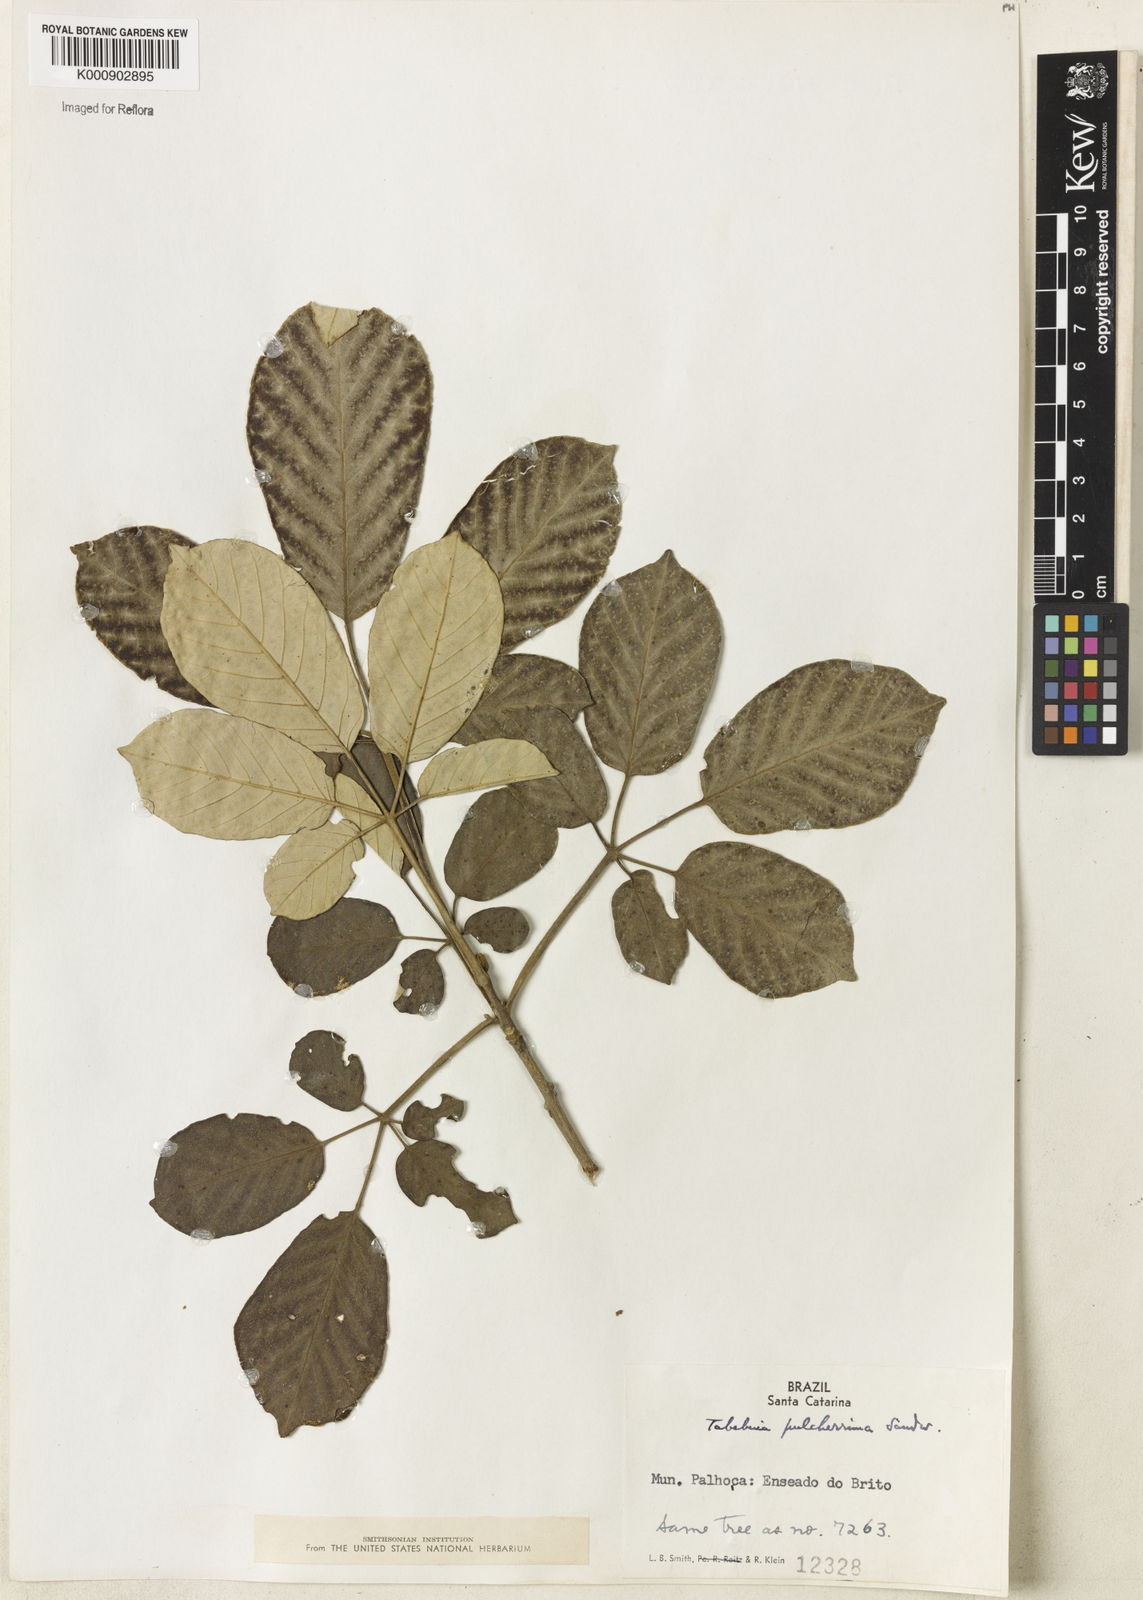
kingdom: Plantae
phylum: Tracheophyta
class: Magnoliopsida
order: Lamiales
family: Bignoniaceae
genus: Handroanthus
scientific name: Handroanthus pulcherrimus
